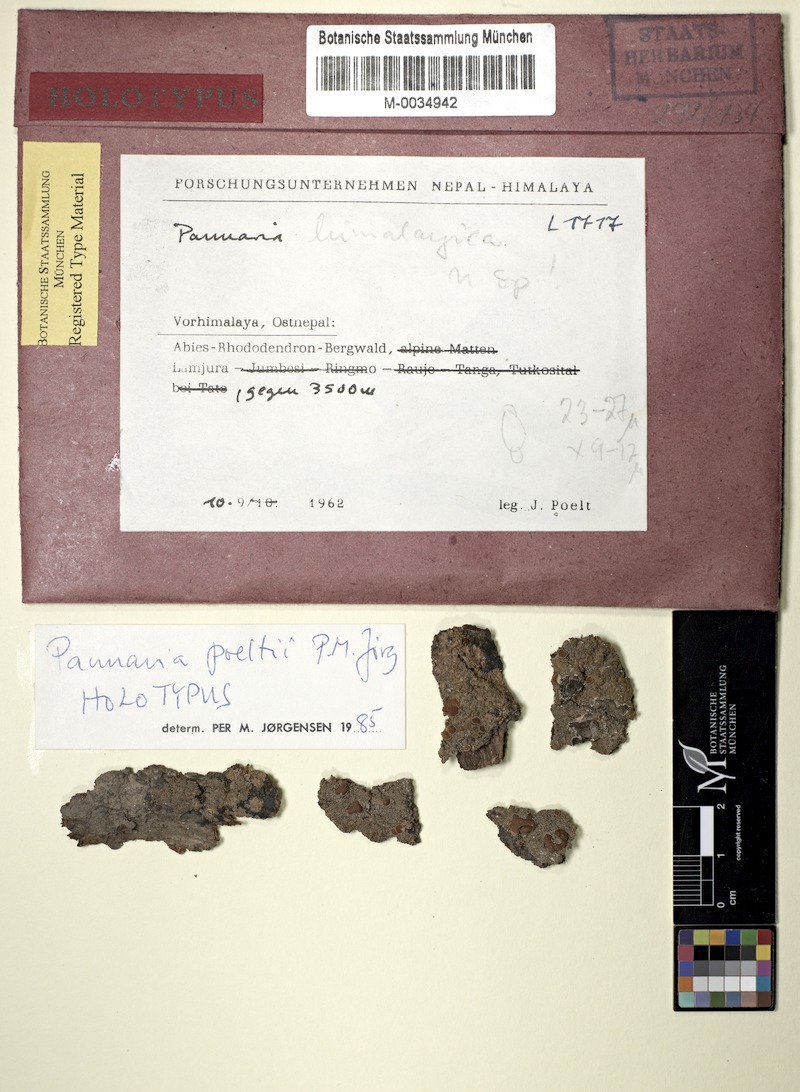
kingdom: Fungi
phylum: Ascomycota
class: Lecanoromycetes
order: Peltigerales
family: Pannariaceae
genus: Fuscopannaria
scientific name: Fuscopannaria poeltii
